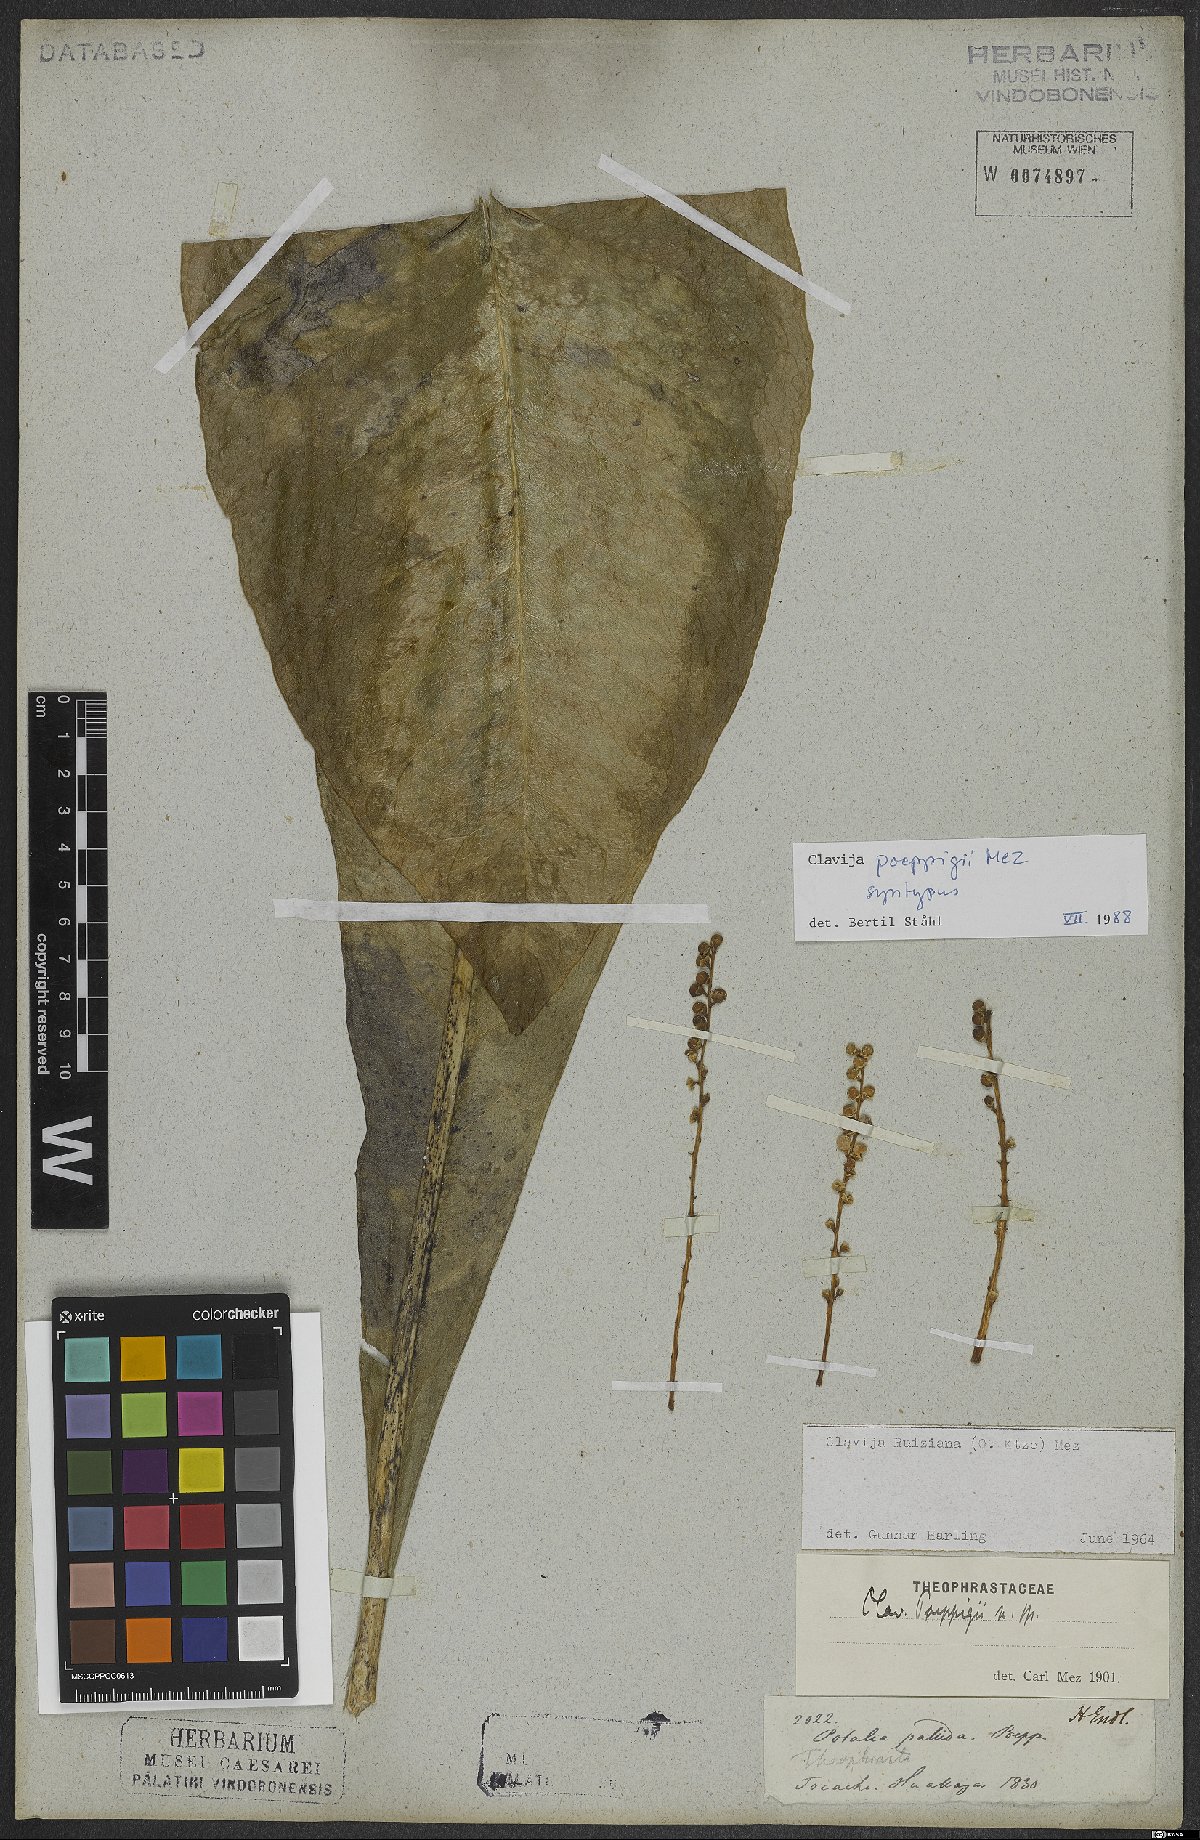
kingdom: Plantae
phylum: Tracheophyta
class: Magnoliopsida
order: Ericales
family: Primulaceae
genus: Clavija
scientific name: Clavija poeppigii
